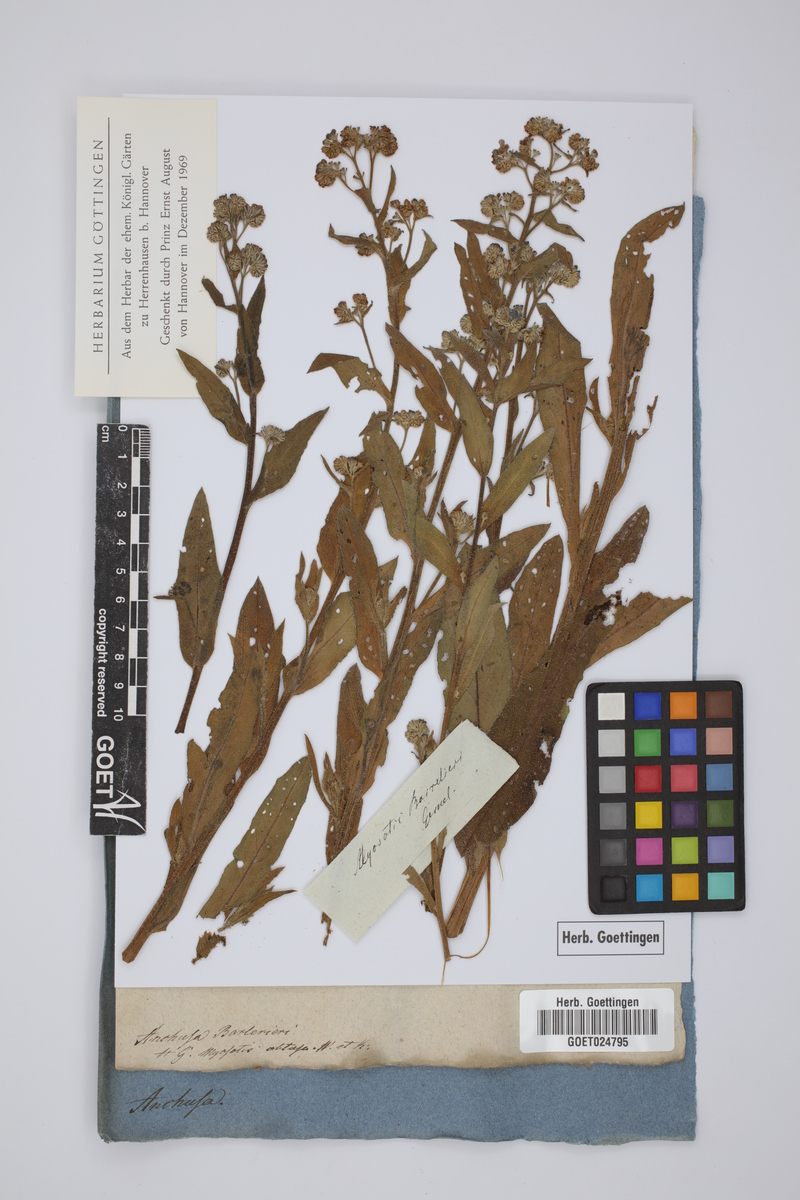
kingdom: Plantae
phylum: Tracheophyta
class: Magnoliopsida
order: Boraginales
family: Boraginaceae
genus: Cynoglottis
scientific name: Cynoglottis barrelieri
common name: False alkanet
